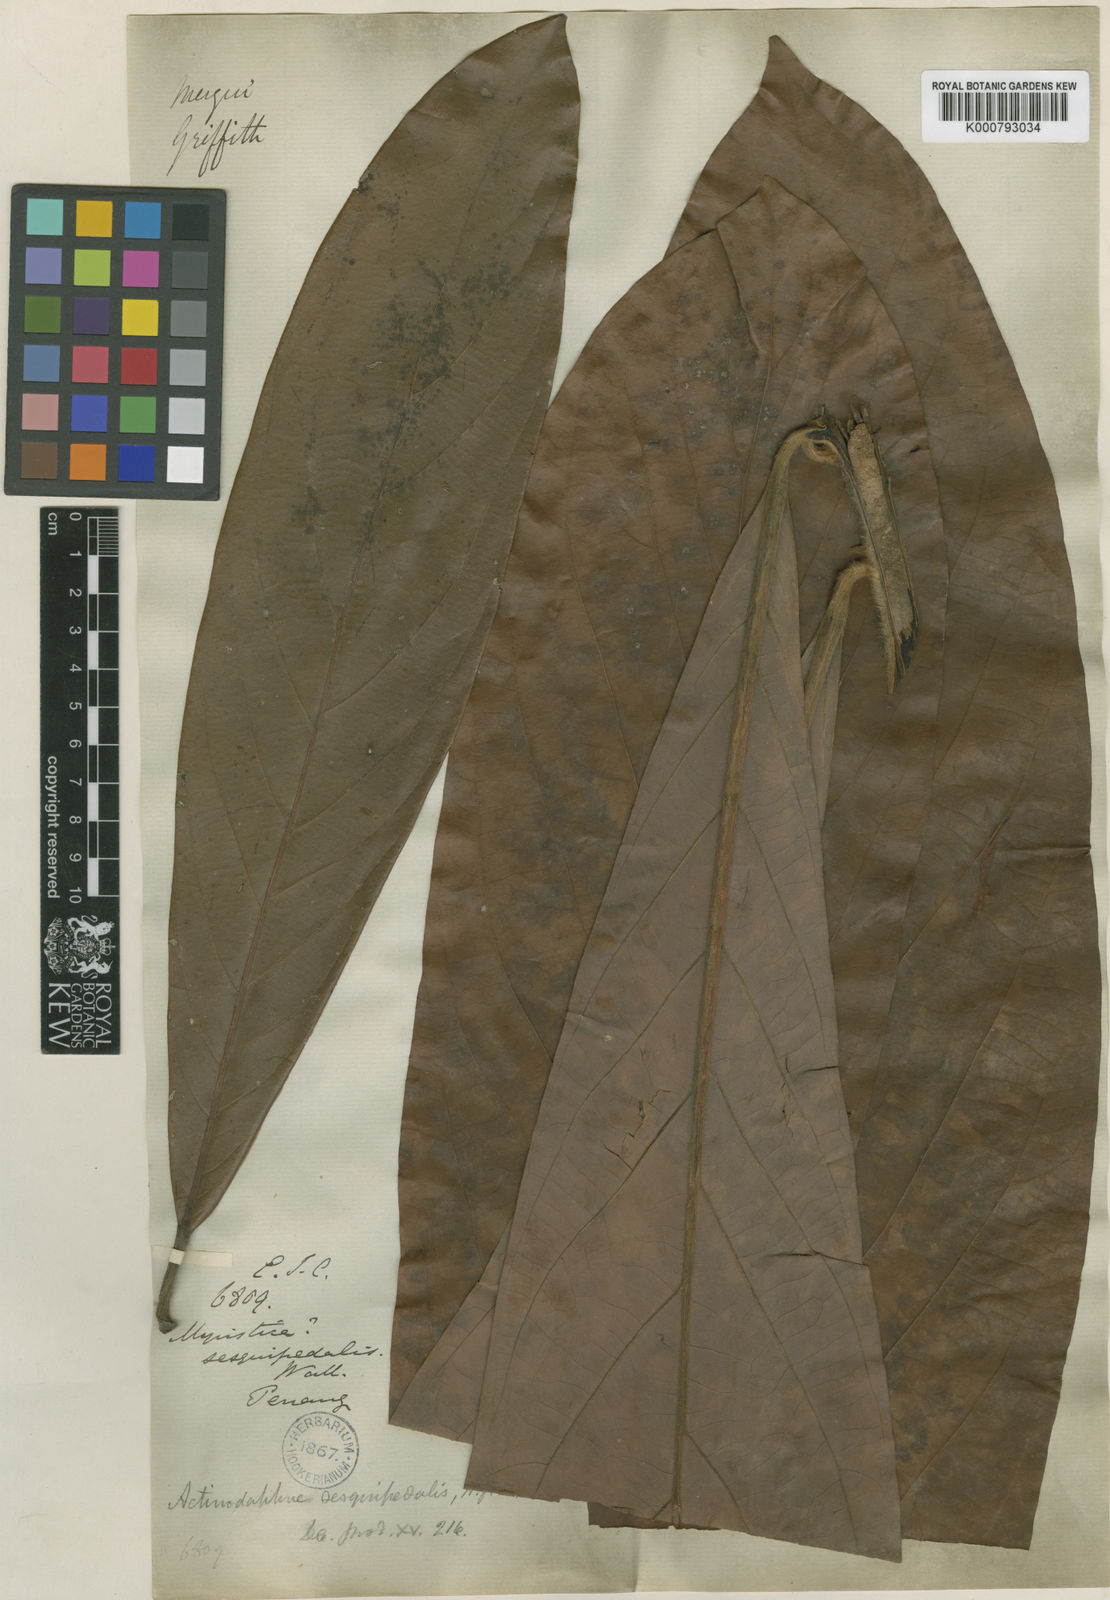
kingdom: Plantae
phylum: Tracheophyta
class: Magnoliopsida
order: Laurales
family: Lauraceae
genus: Actinodaphne
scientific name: Actinodaphne sesquipedalis
